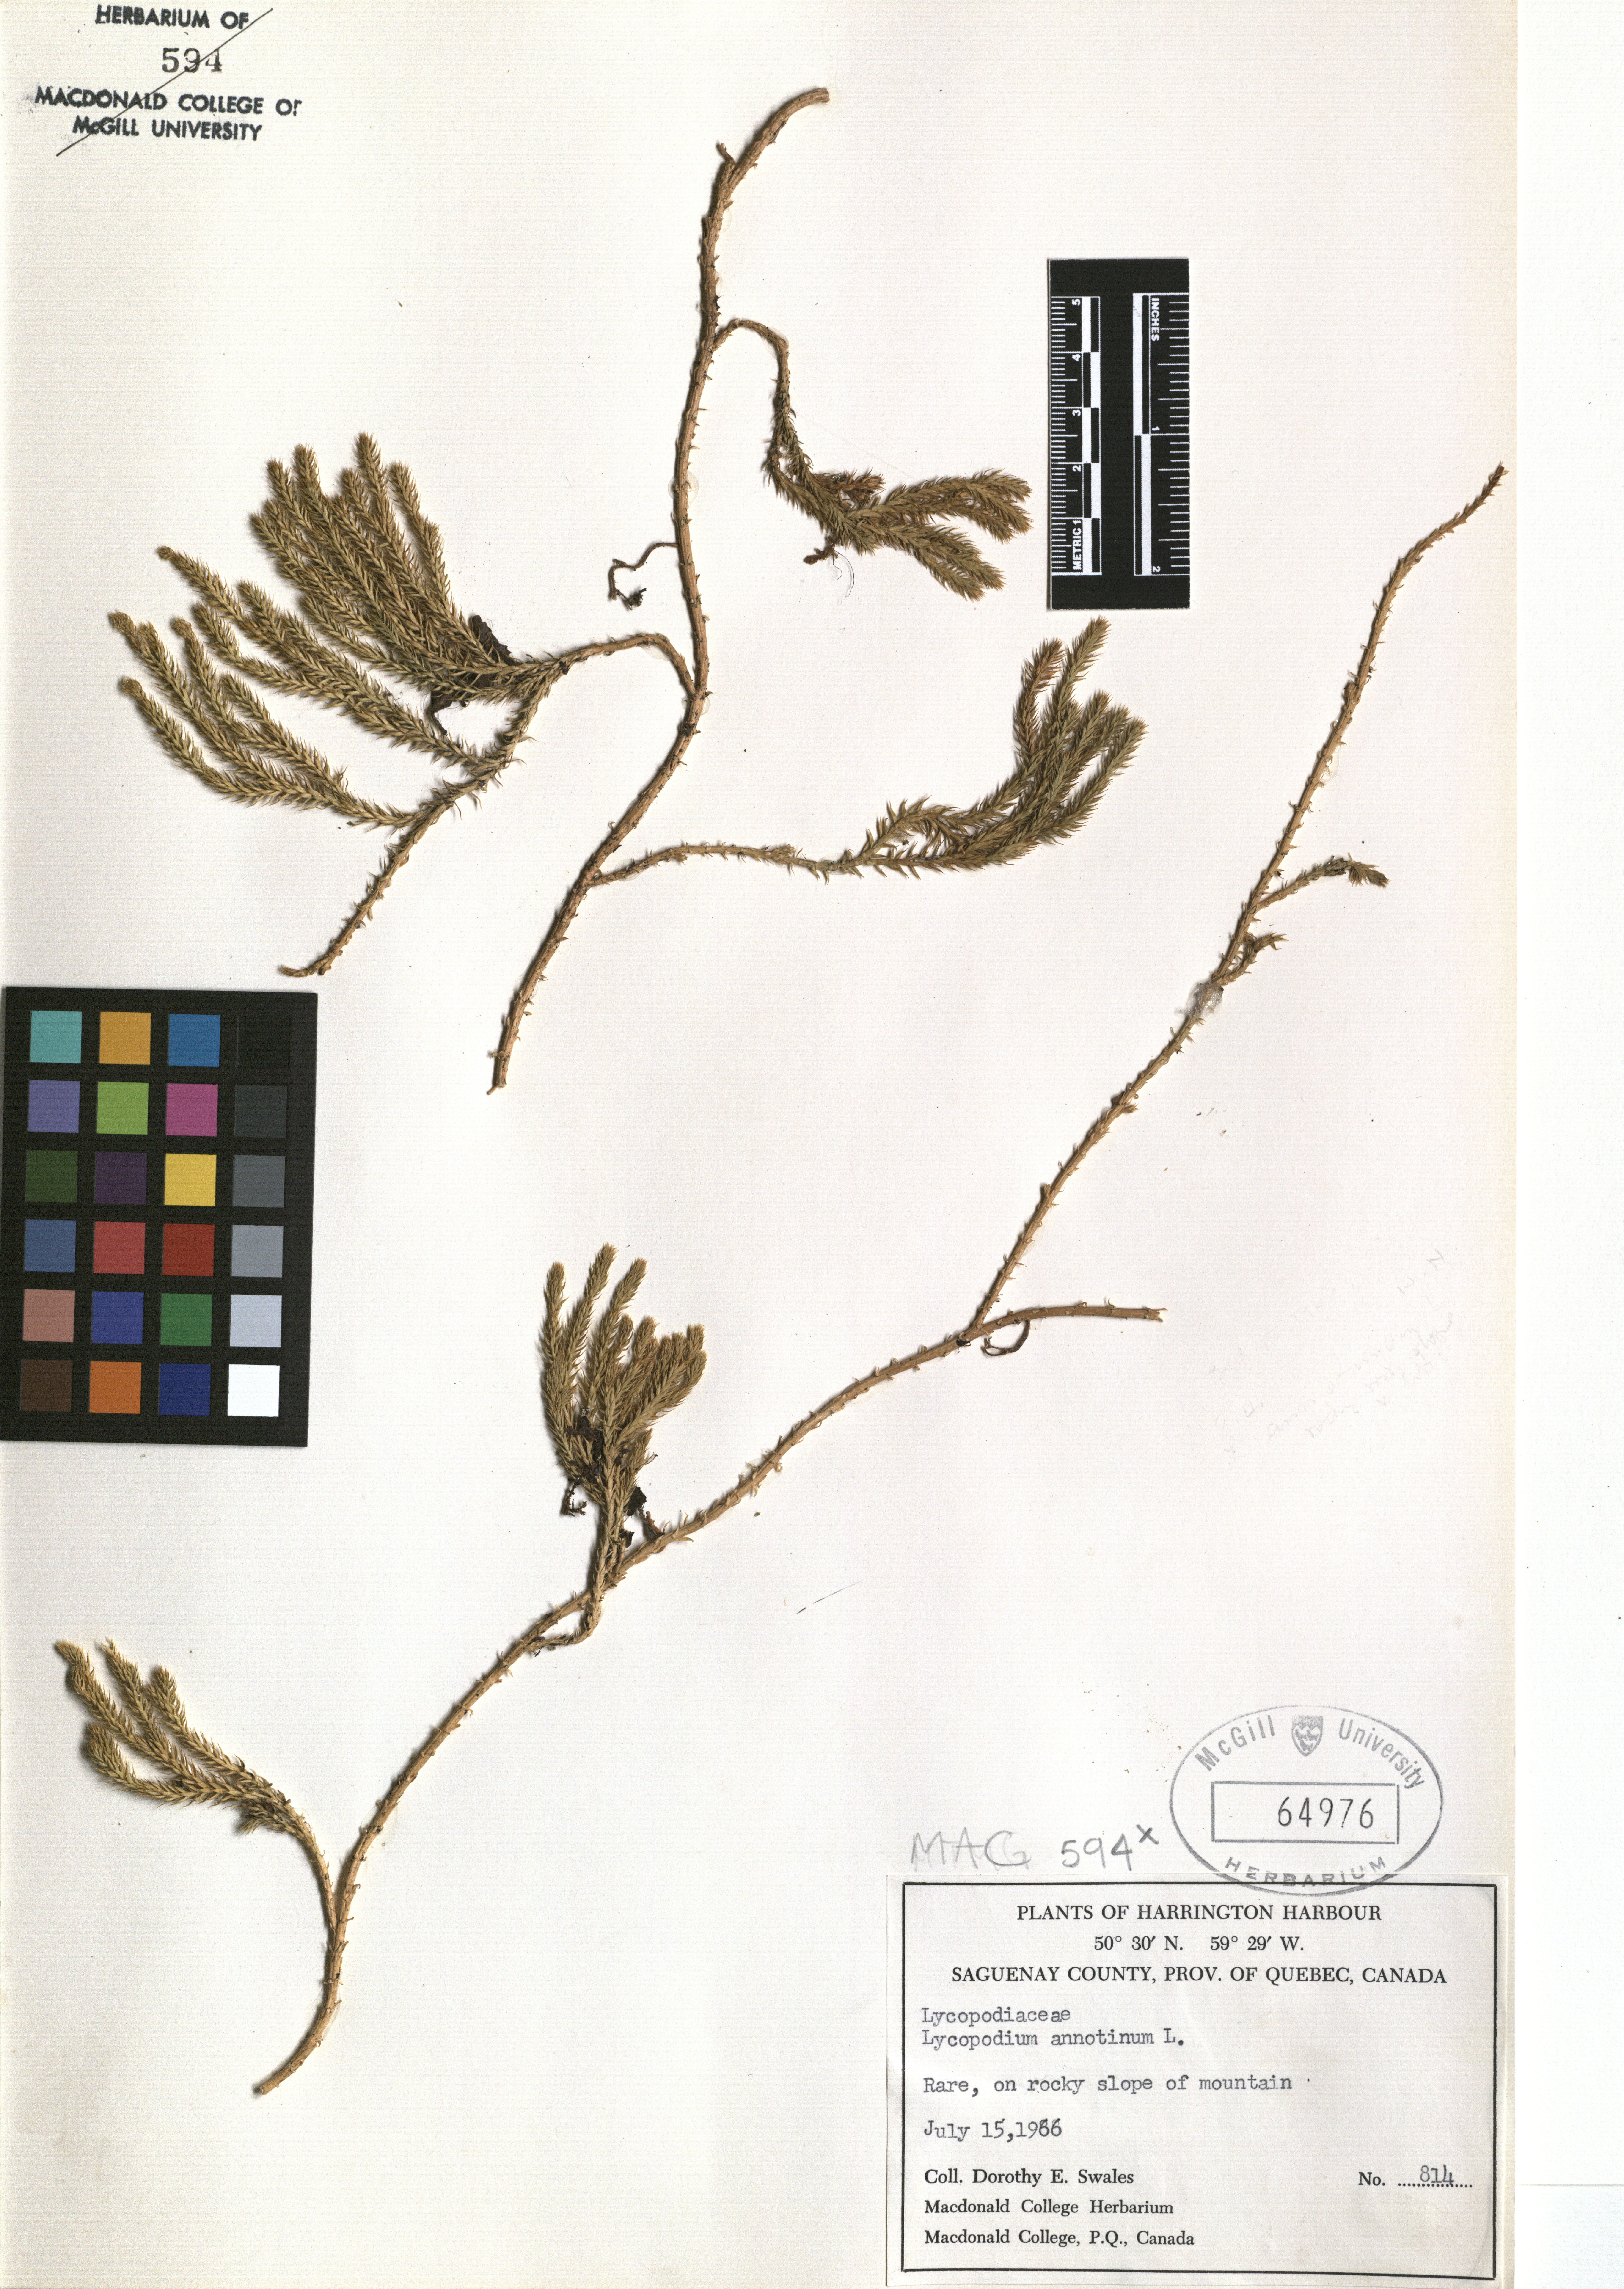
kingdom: Plantae
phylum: Tracheophyta
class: Lycopodiopsida
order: Lycopodiales
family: Lycopodiaceae
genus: Spinulum
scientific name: Spinulum annotinum
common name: Interrupted club-moss
